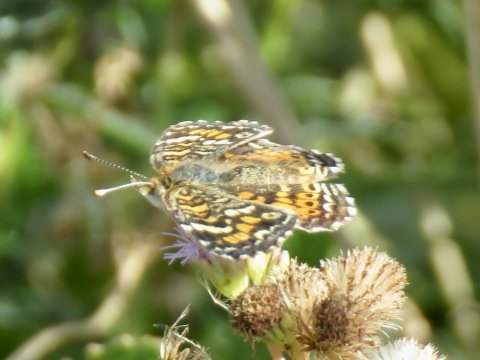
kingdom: Animalia
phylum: Arthropoda
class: Insecta
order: Lepidoptera
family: Nymphalidae
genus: Phyciodes
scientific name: Phyciodes phaon
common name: Phaon Crescent
